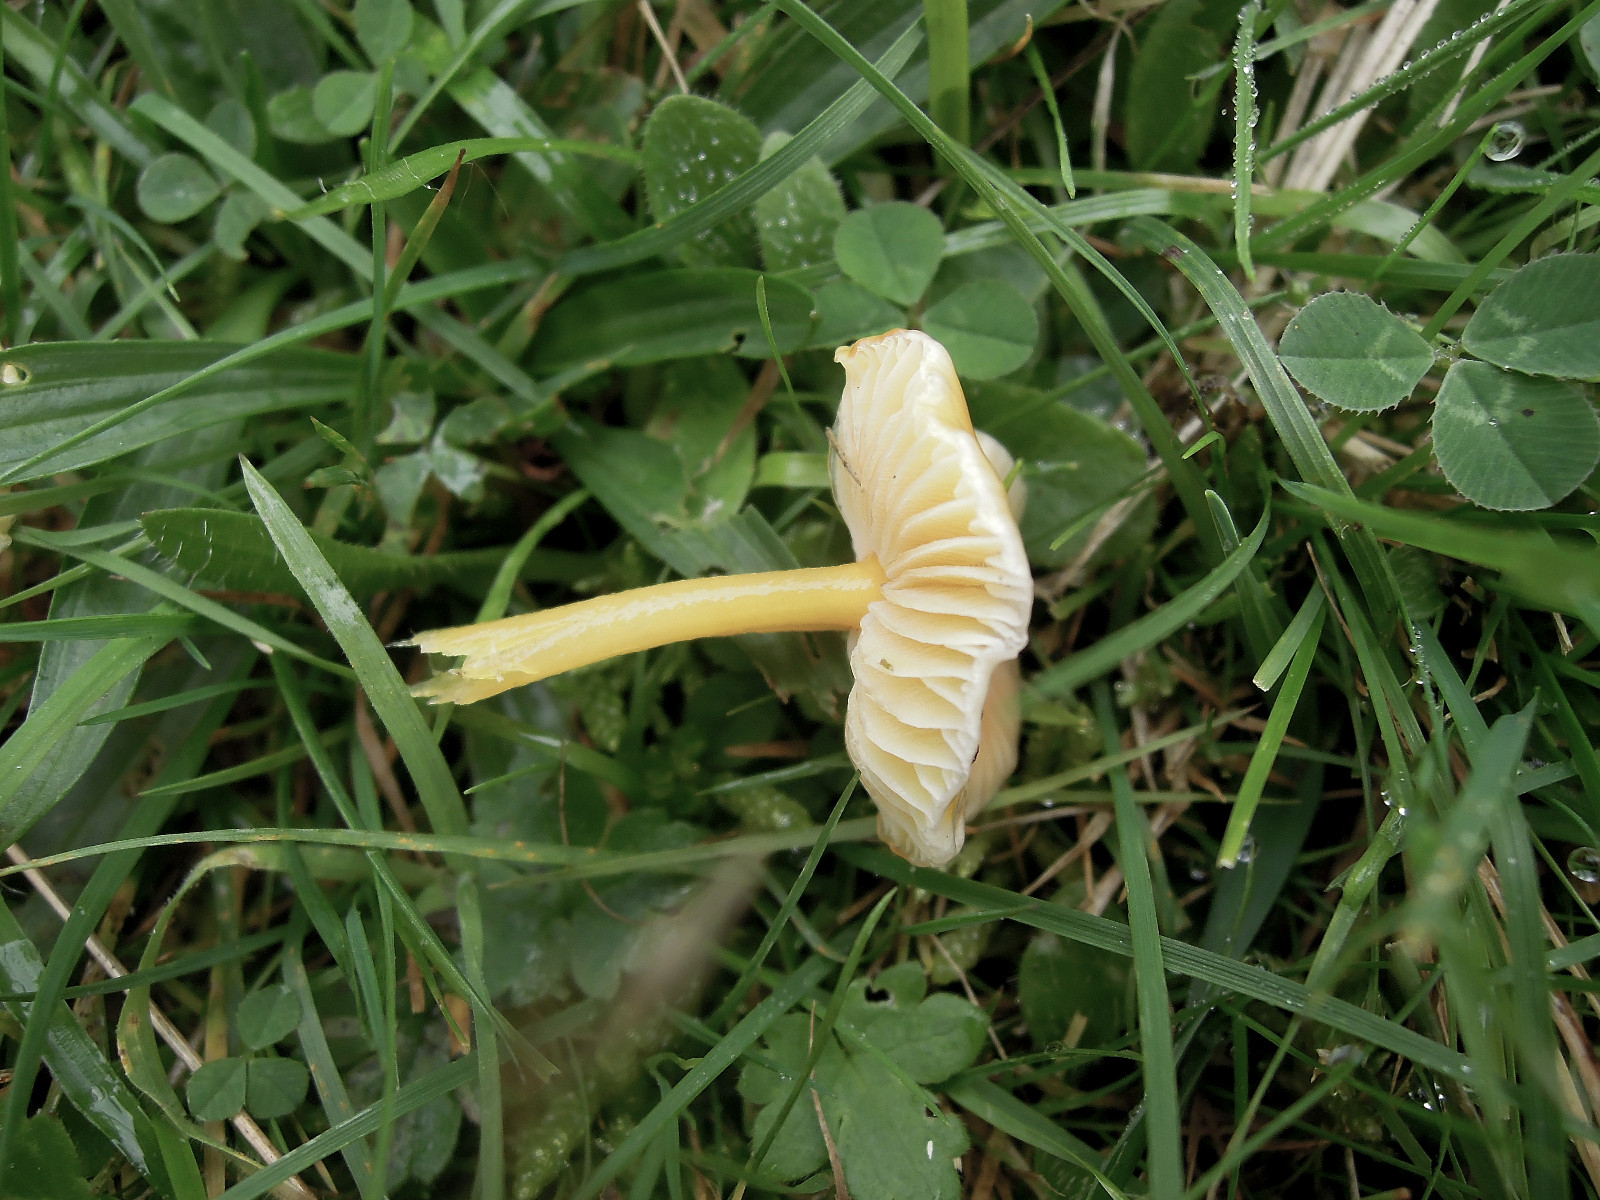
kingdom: Fungi
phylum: Basidiomycota
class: Agaricomycetes
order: Agaricales
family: Hygrophoraceae
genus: Hygrocybe
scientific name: Hygrocybe glutinipes
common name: slimstokket vokshat
